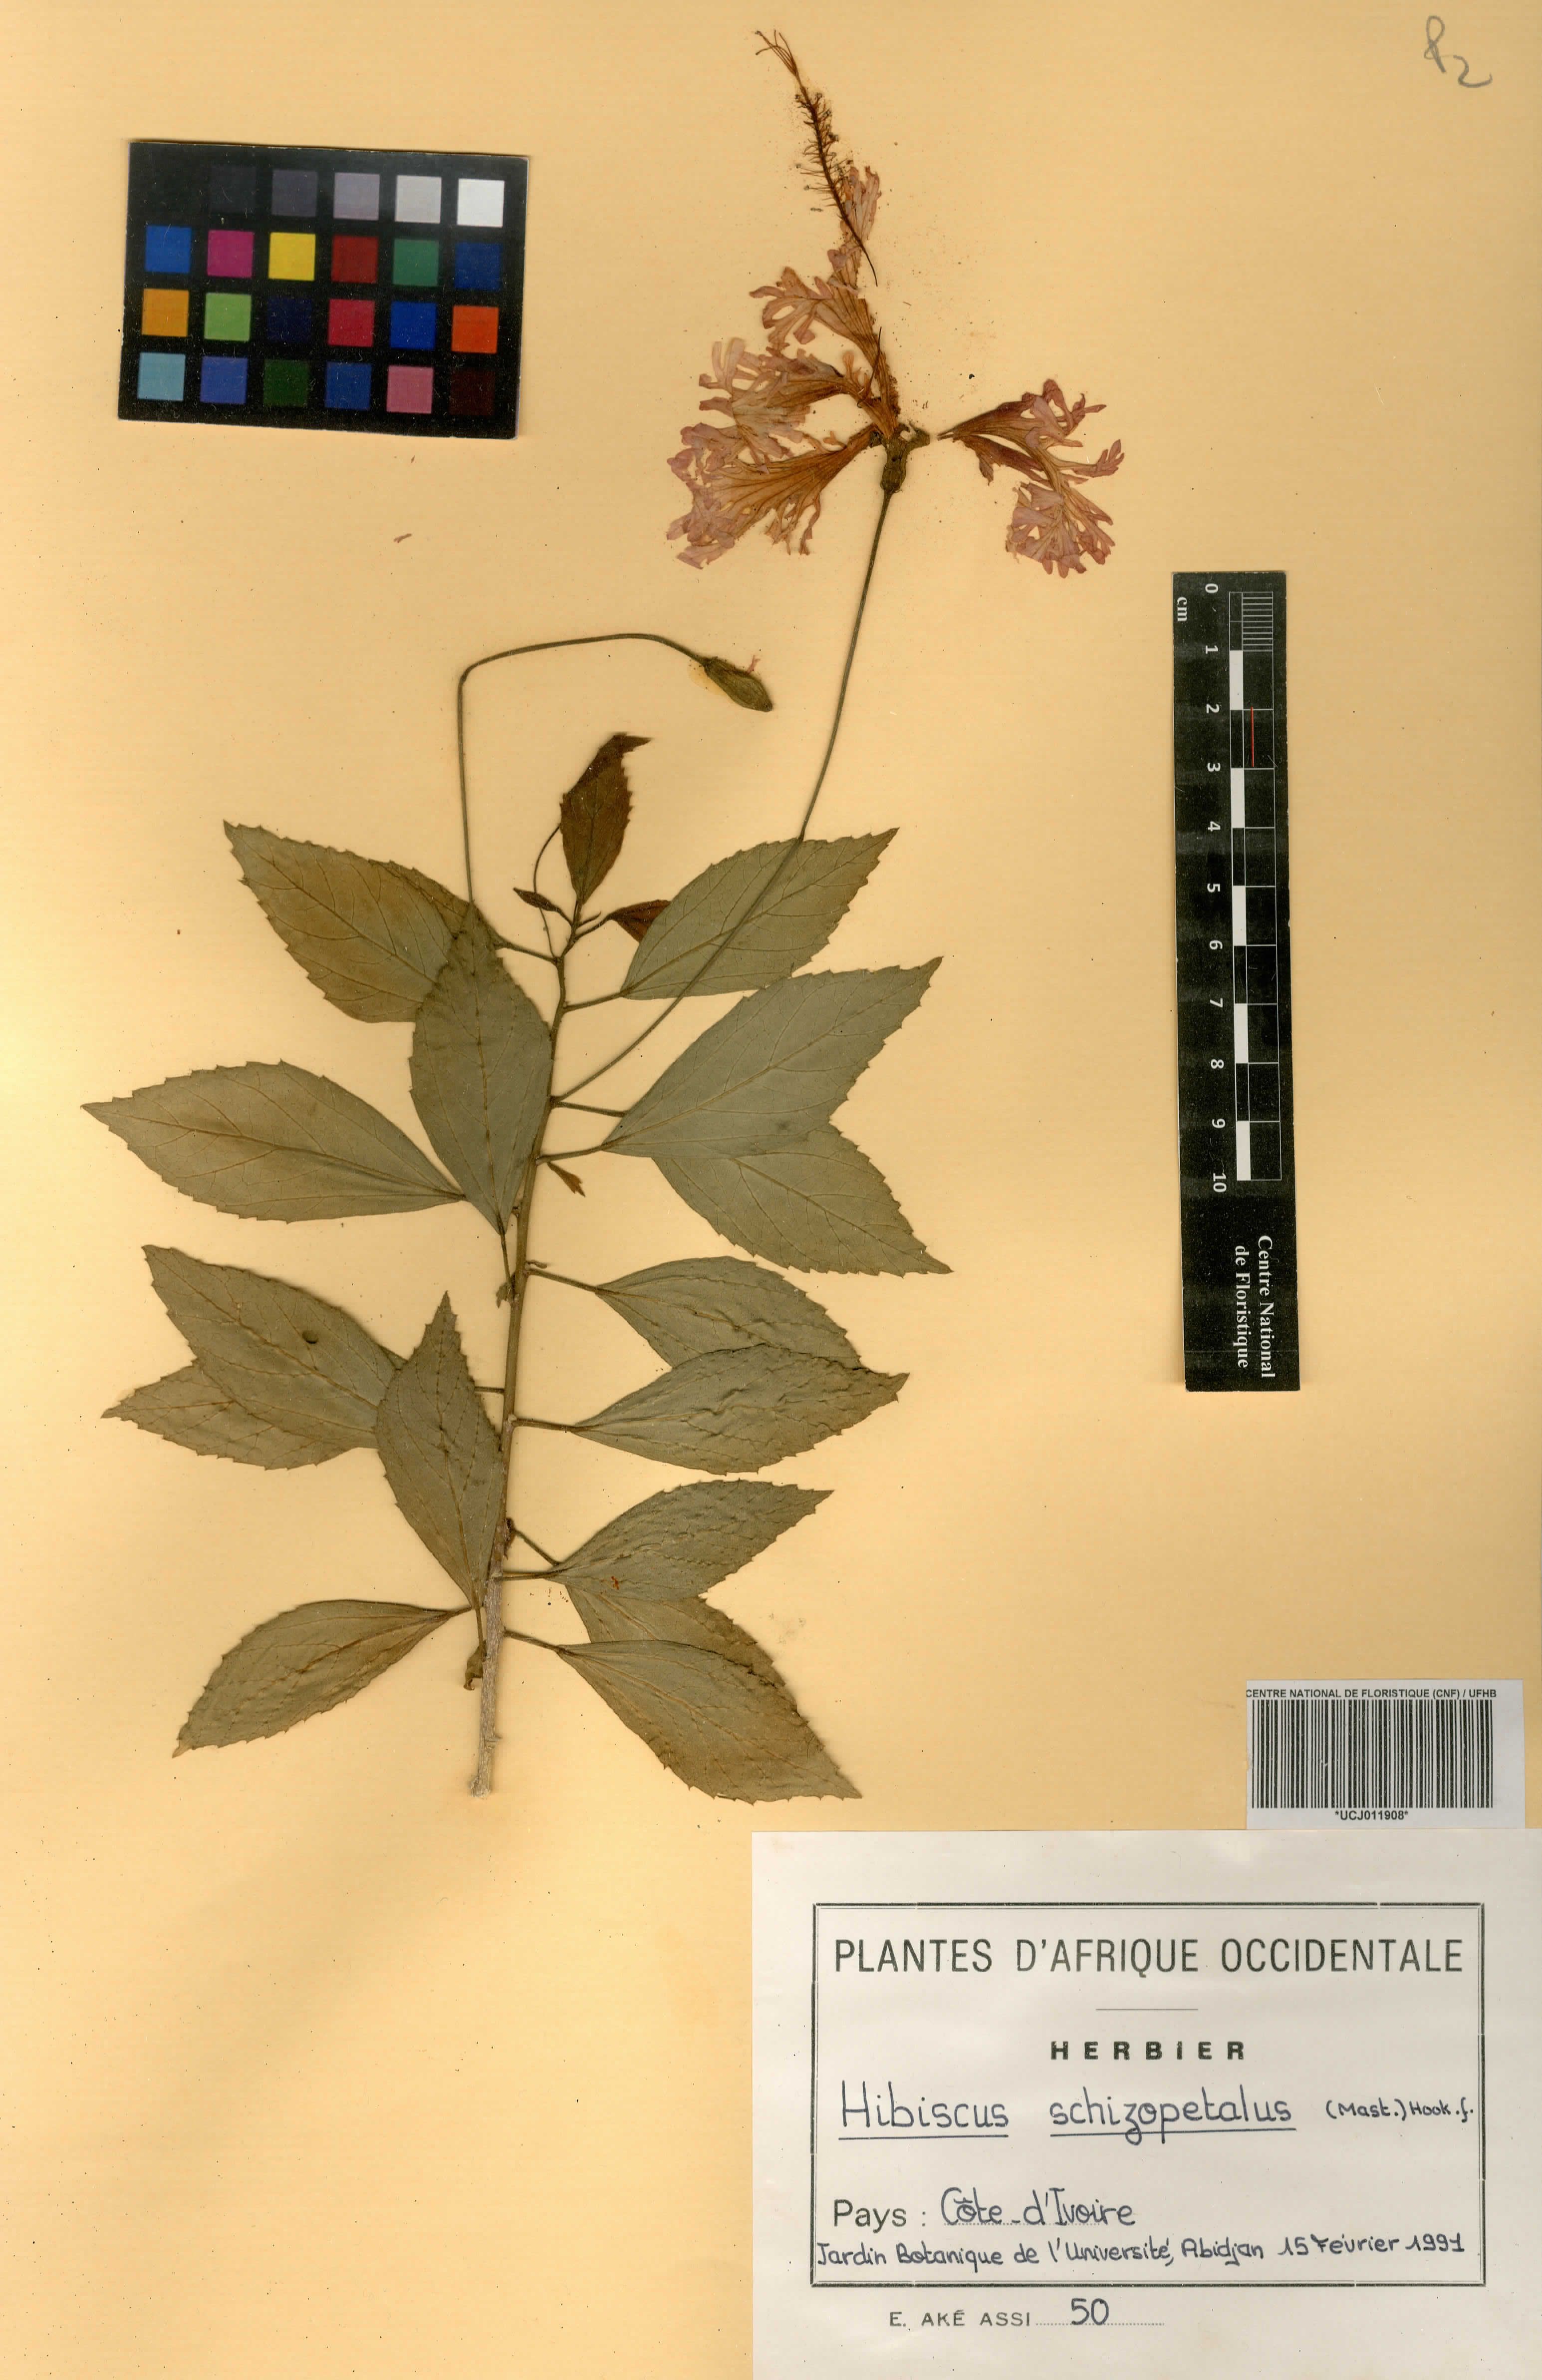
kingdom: Plantae
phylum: Tracheophyta
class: Magnoliopsida
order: Malvales
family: Malvaceae
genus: Hibiscus
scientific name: Hibiscus schizopetalus
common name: Fringed rosemallow
